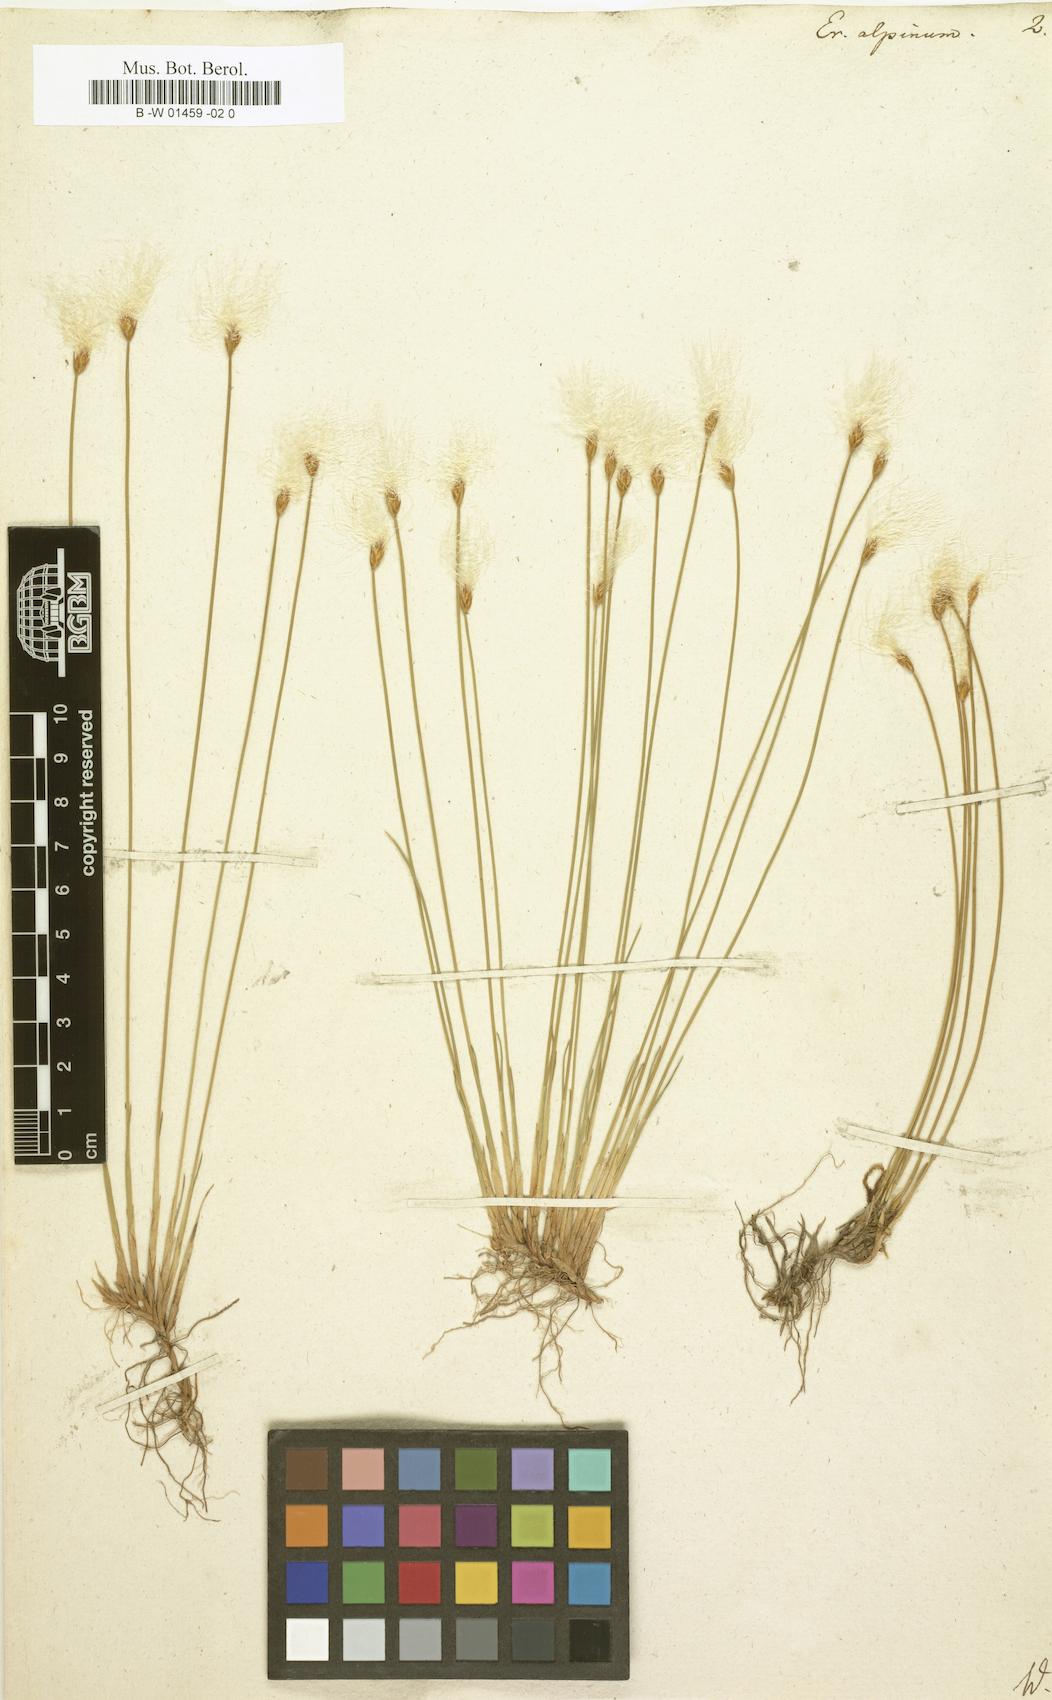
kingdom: Plantae
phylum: Tracheophyta
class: Liliopsida
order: Poales
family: Cyperaceae
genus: Trichophorum
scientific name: Trichophorum alpinum
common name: Alpine bulrush
